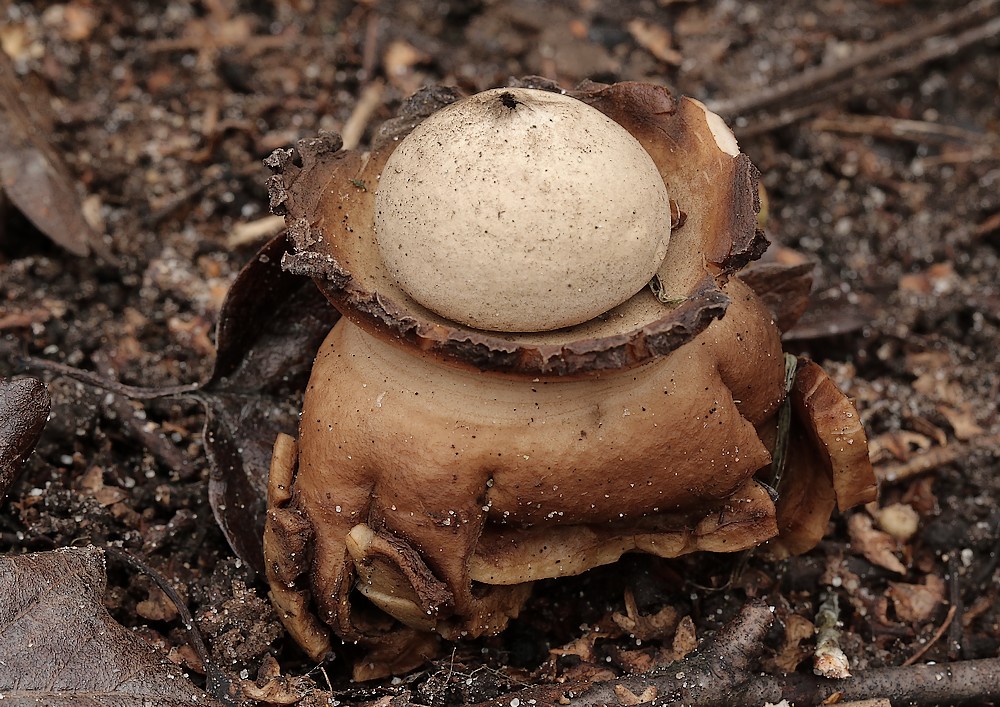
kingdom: Fungi
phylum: Basidiomycota
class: Agaricomycetes
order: Geastrales
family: Geastraceae
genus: Geastrum
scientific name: Geastrum michelianum
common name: kødet stjernebold
